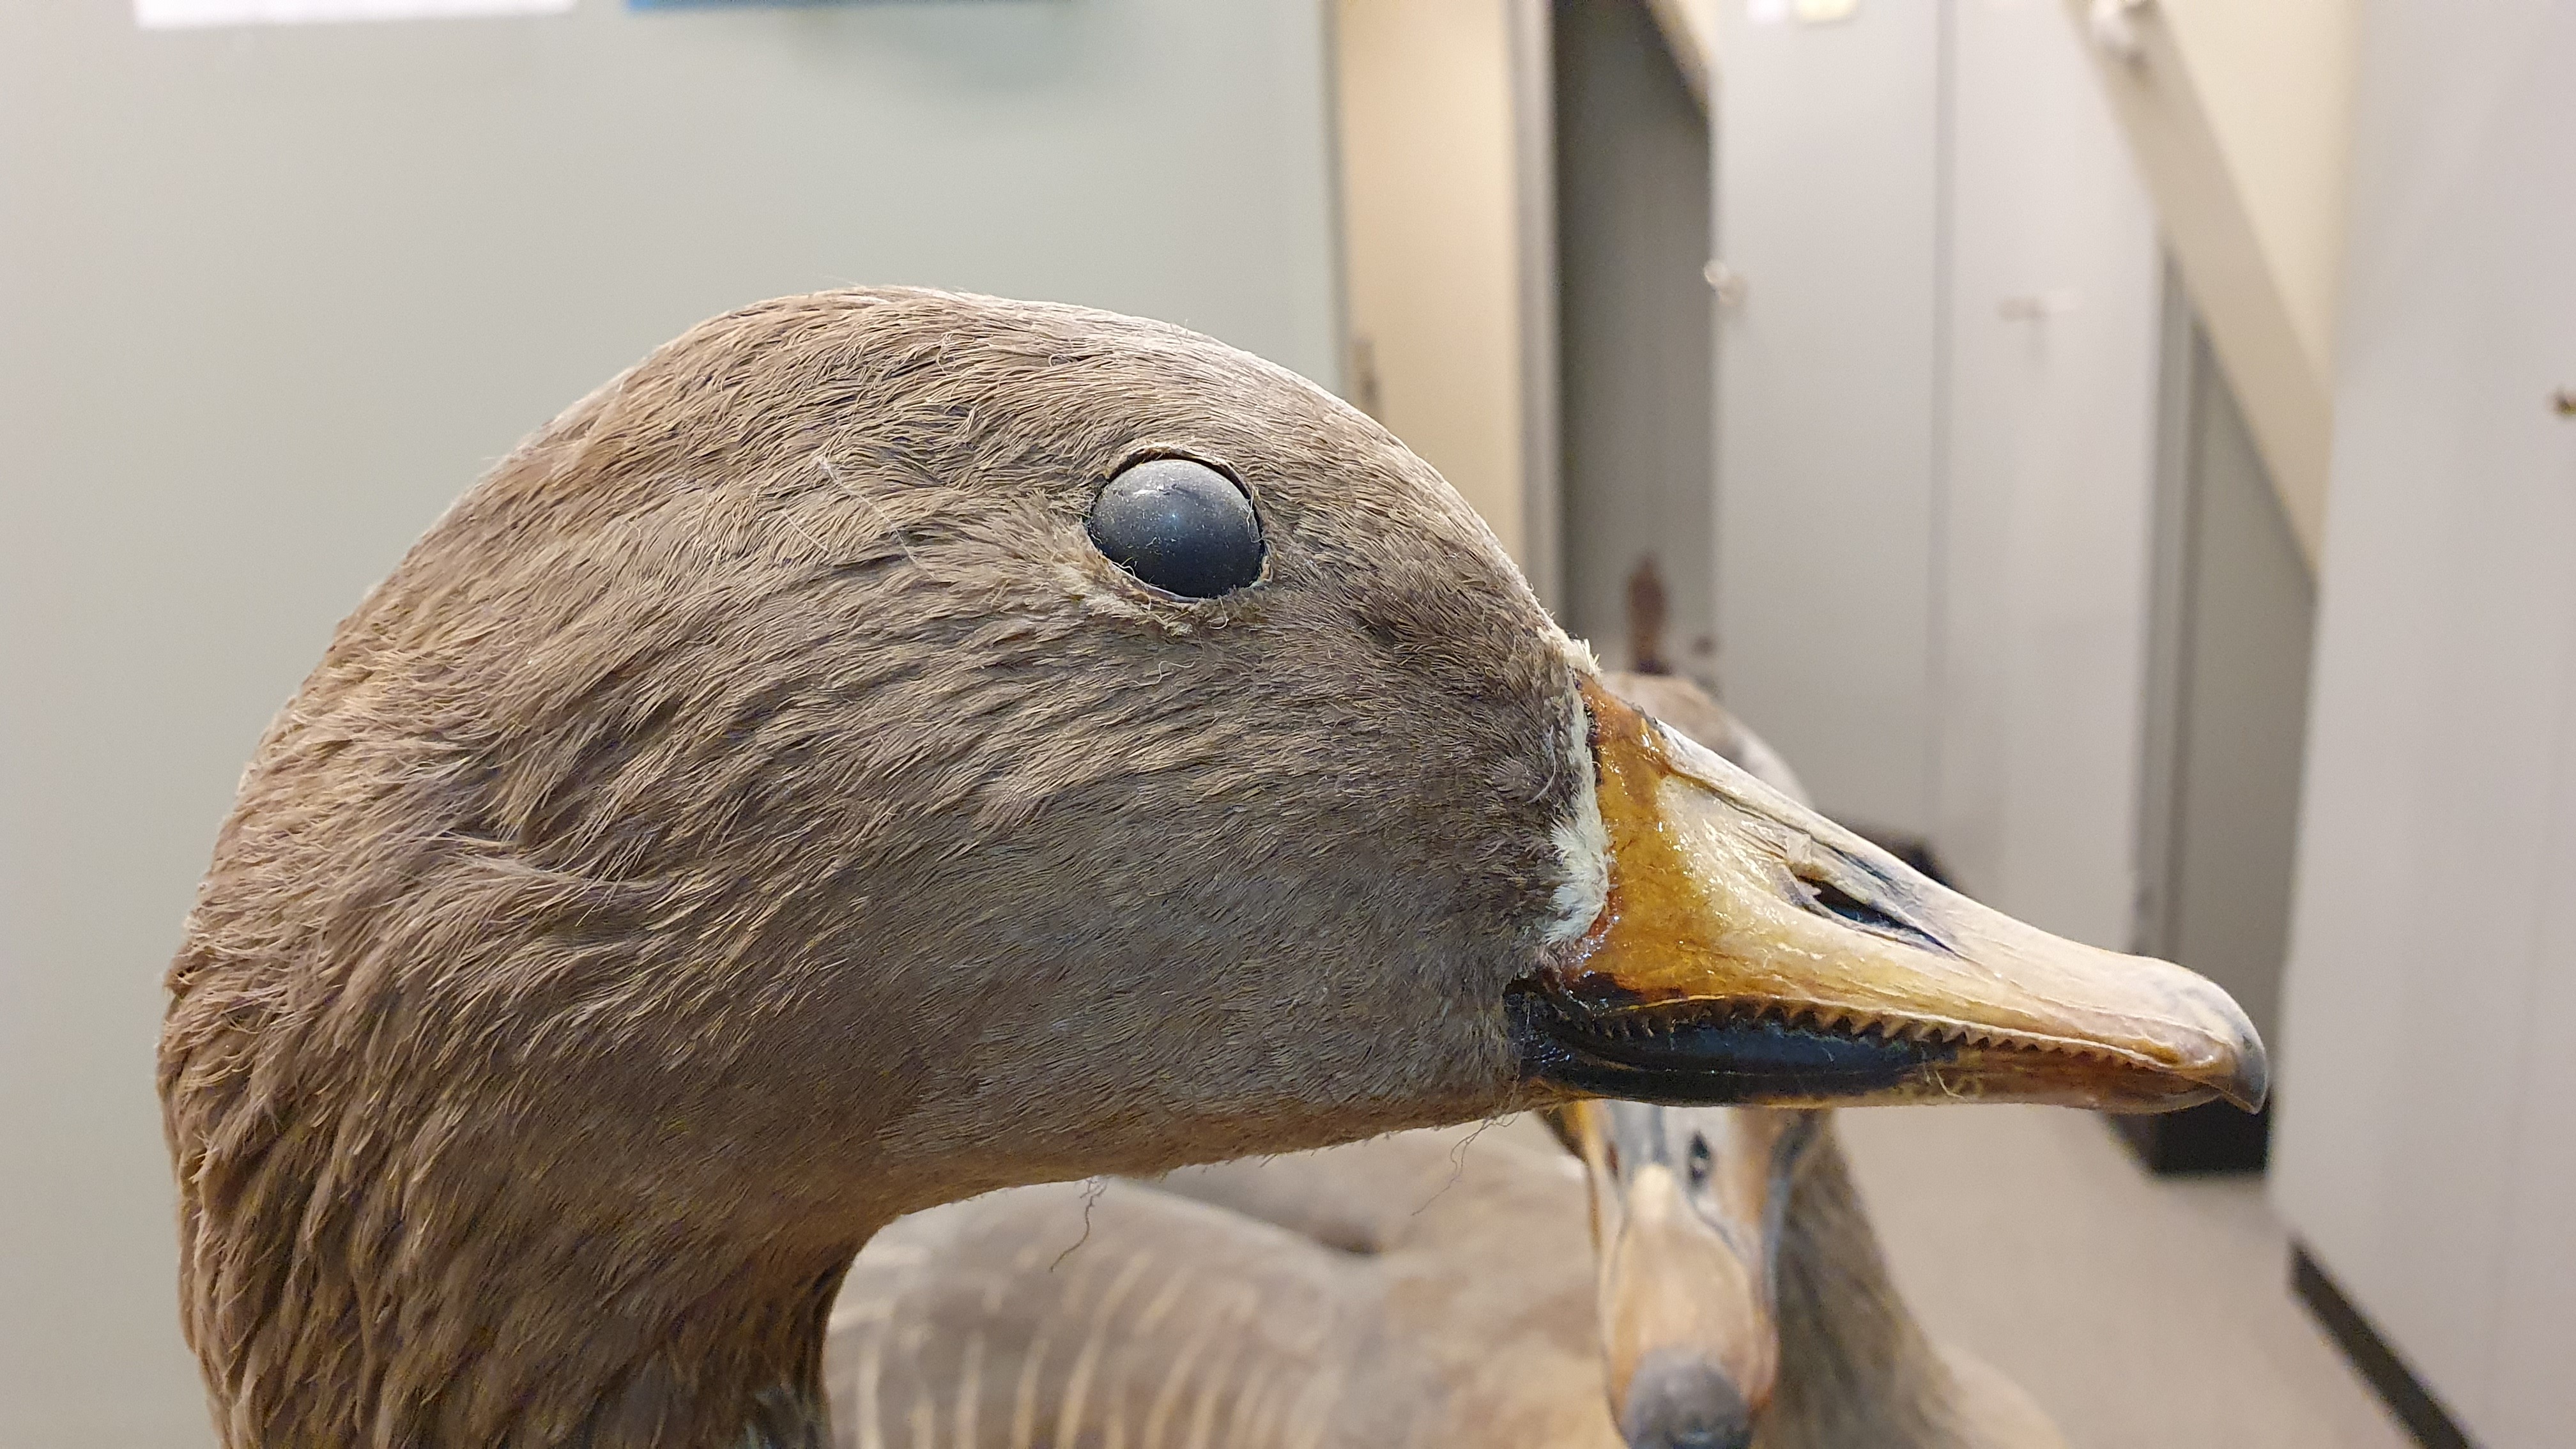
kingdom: Animalia
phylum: Chordata
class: Aves
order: Anseriformes
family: Anatidae
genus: Anser
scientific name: Anser fabalis
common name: Bean goose
